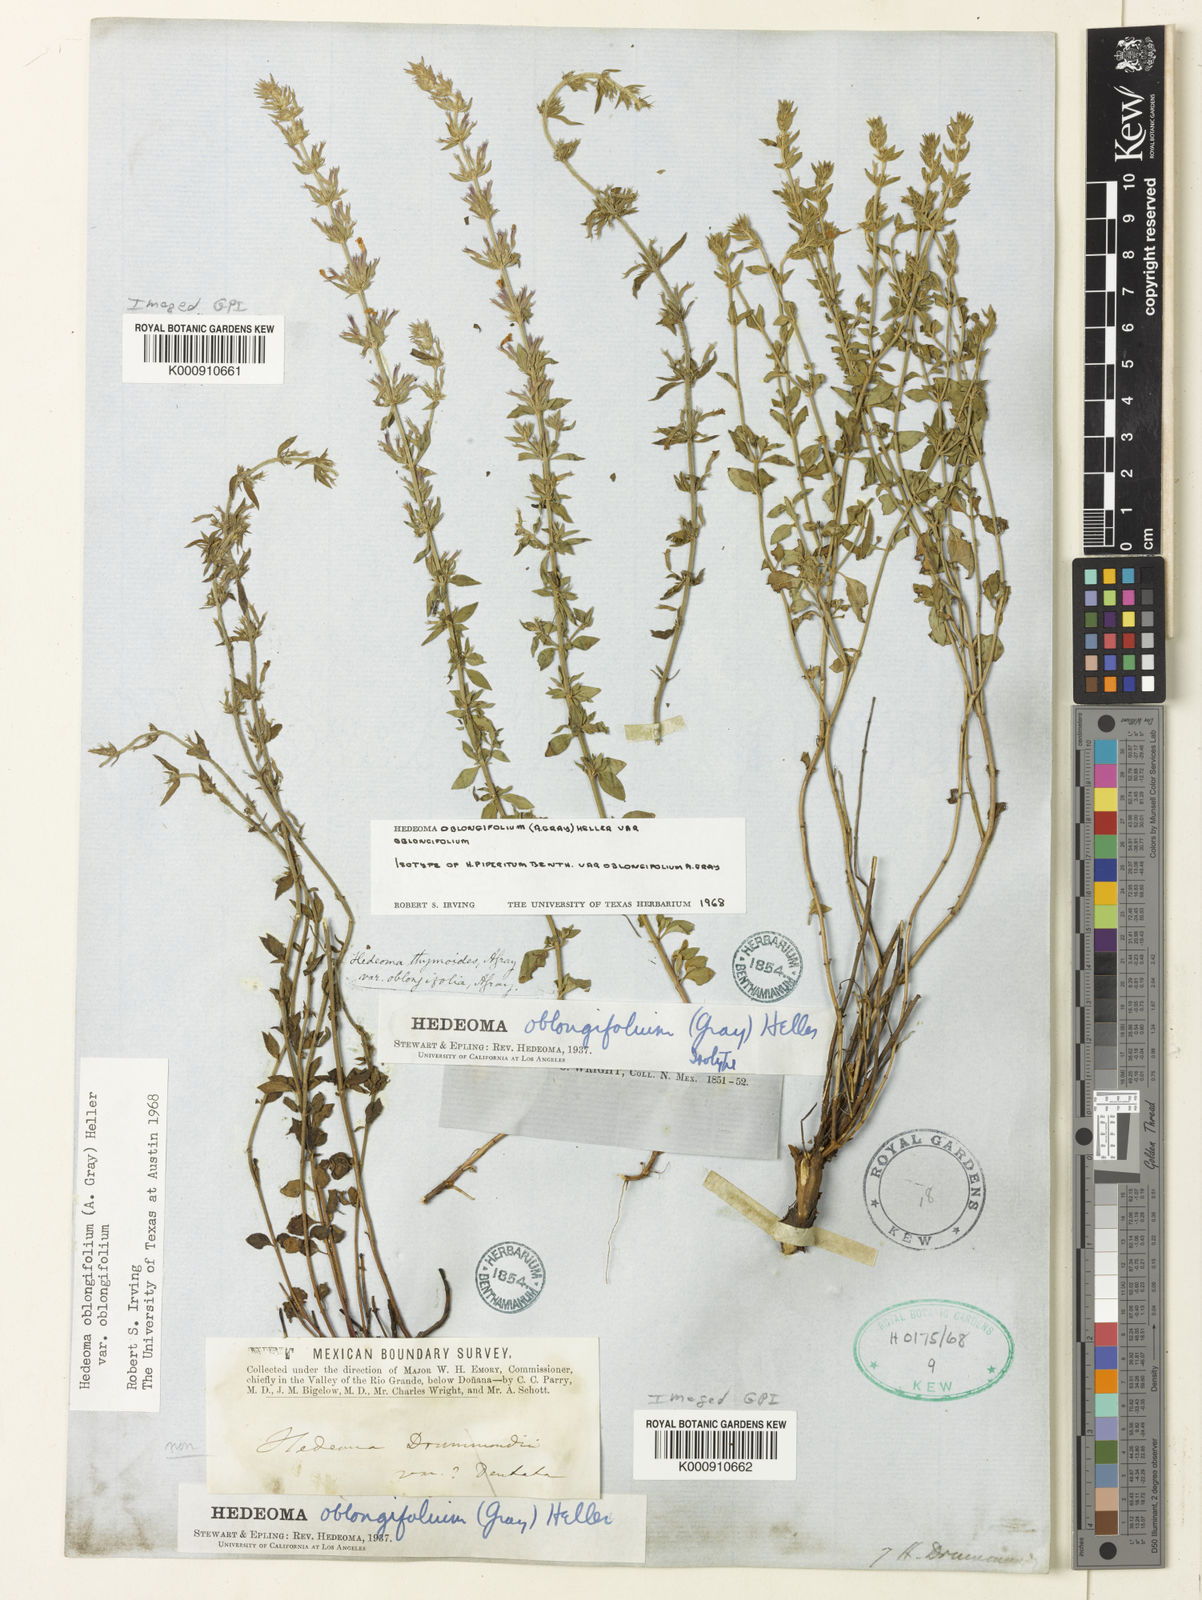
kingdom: Plantae
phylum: Tracheophyta
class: Magnoliopsida
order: Lamiales
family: Lamiaceae
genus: Hedeoma
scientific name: Hedeoma oblongifolia
